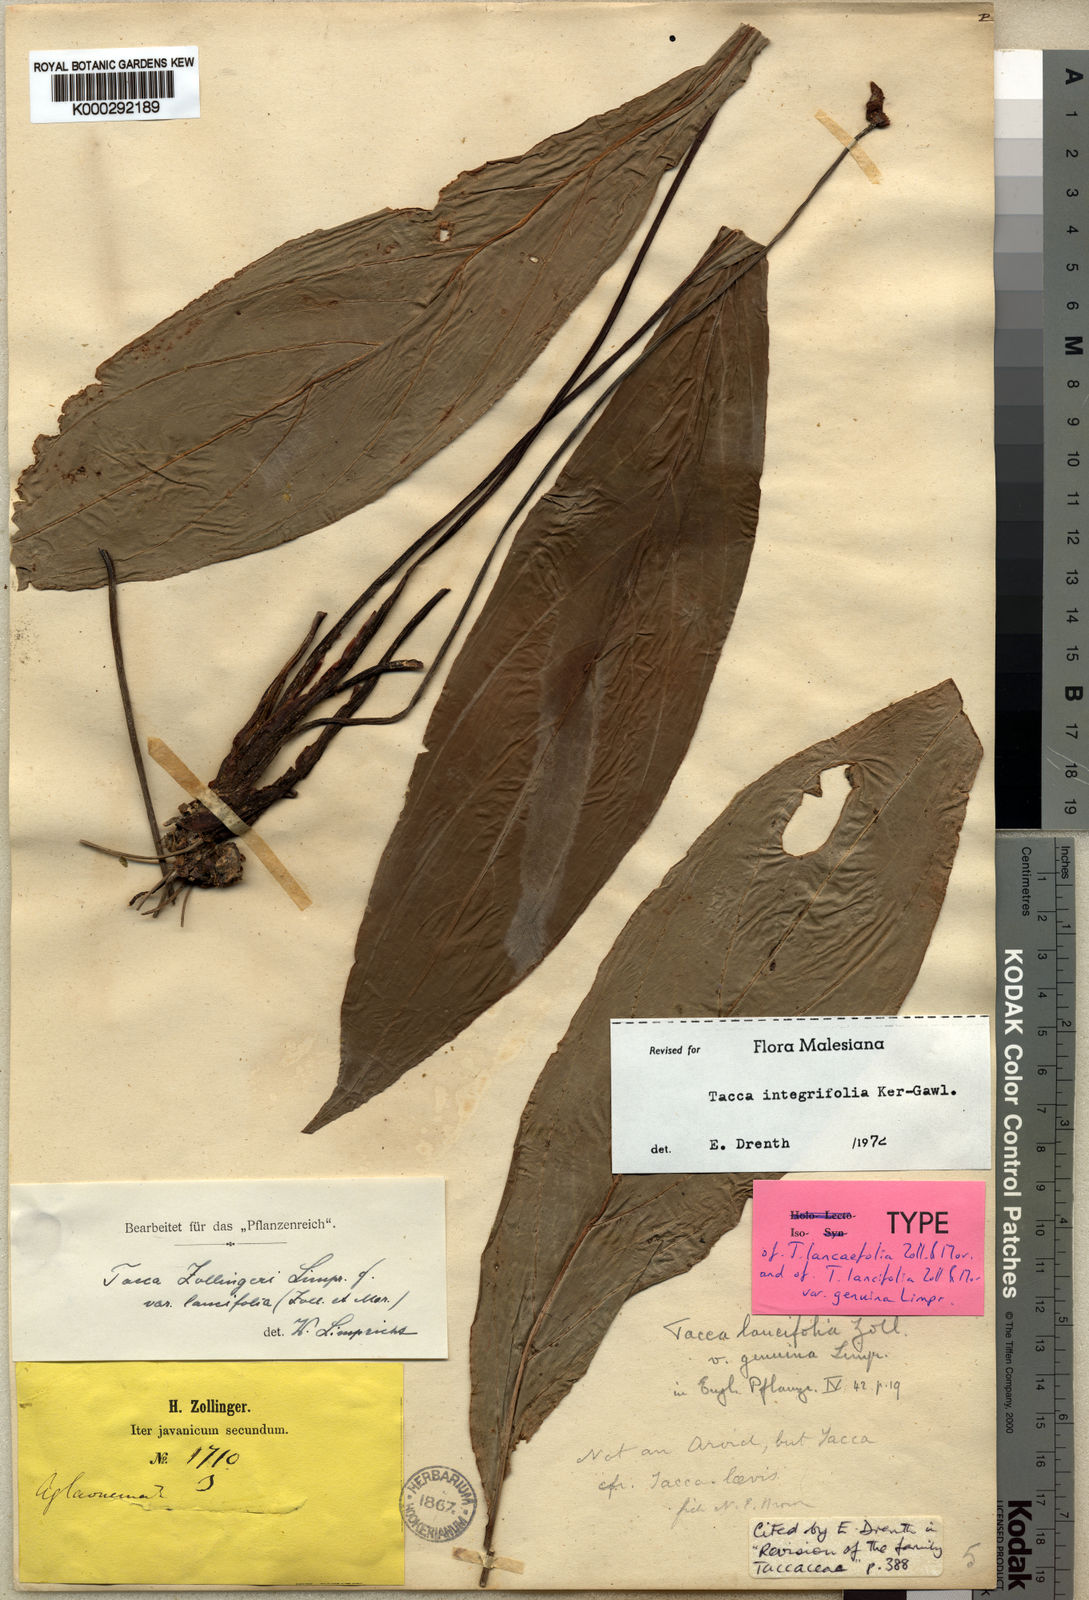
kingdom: Plantae
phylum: Tracheophyta
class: Liliopsida
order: Dioscoreales
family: Dioscoreaceae
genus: Tacca
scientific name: Tacca integrifolia
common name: Batplant
